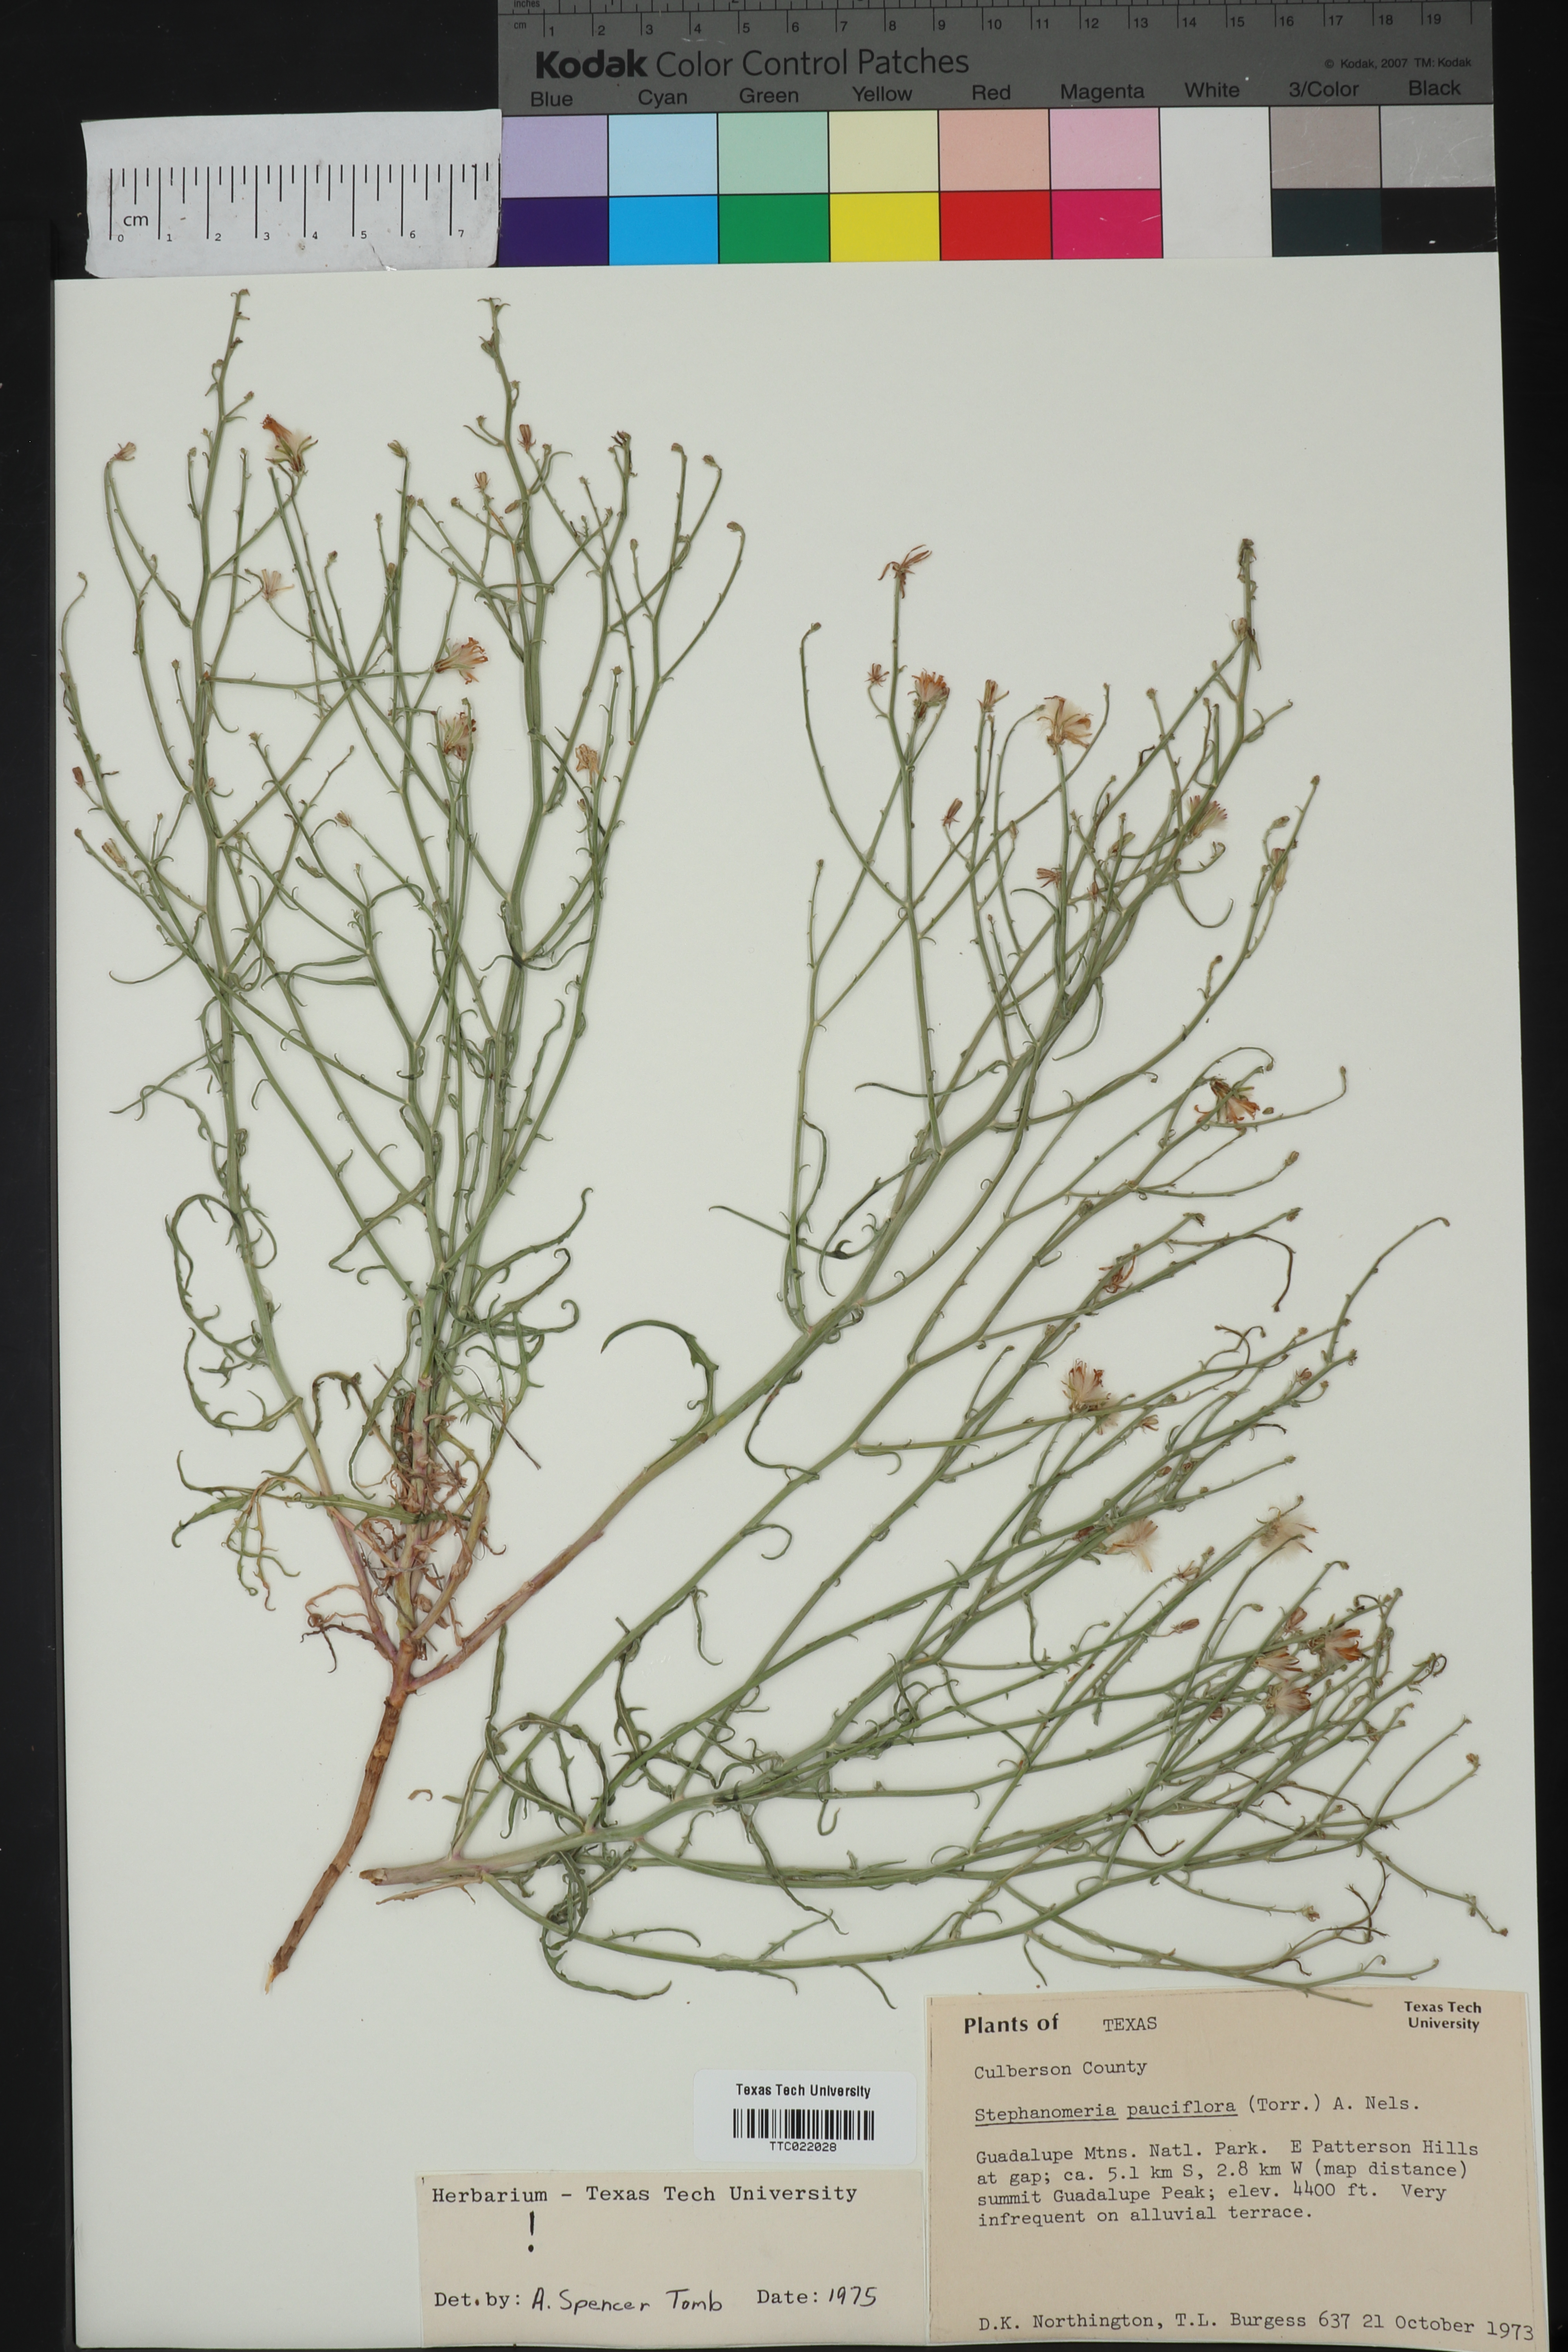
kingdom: Plantae
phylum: Tracheophyta
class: Magnoliopsida
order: Asterales
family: Asteraceae
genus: Stephanomeria
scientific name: Stephanomeria pauciflora
